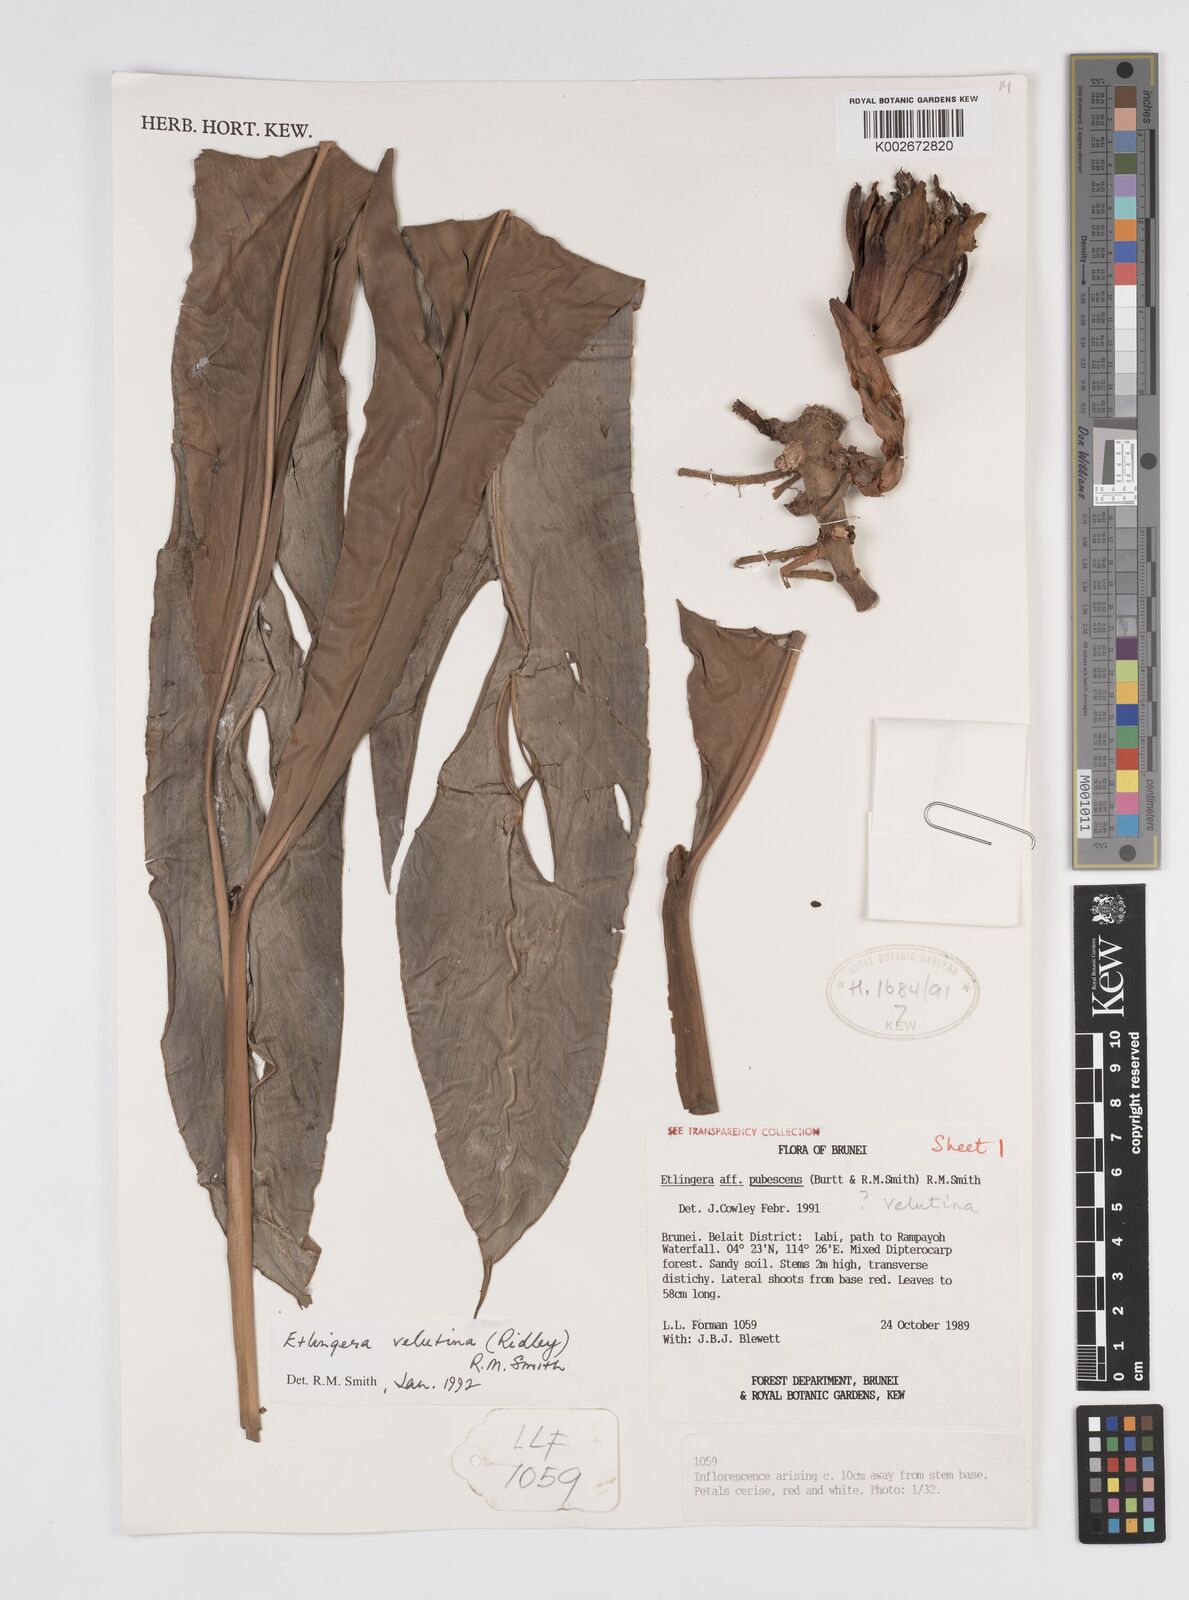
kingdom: Plantae
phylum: Tracheophyta
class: Liliopsida
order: Zingiberales
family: Zingiberaceae
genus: Etlingera
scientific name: Etlingera velutina
